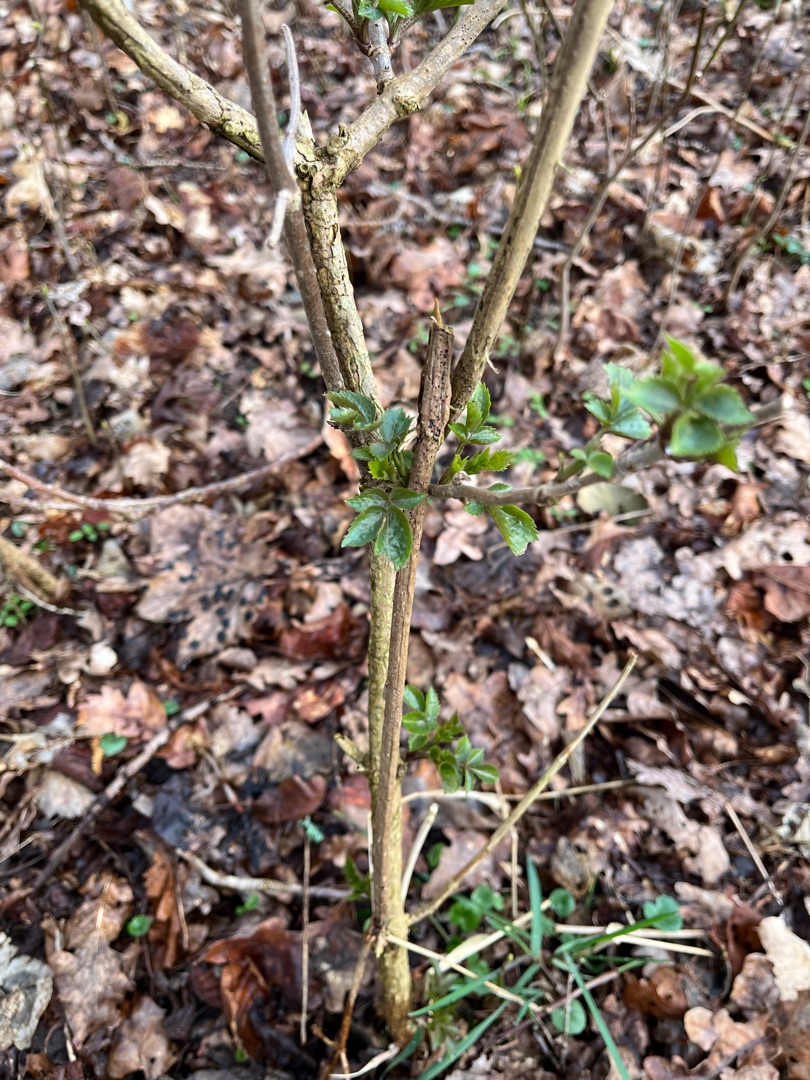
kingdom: Plantae
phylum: Tracheophyta
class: Magnoliopsida
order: Dipsacales
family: Viburnaceae
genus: Sambucus
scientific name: Sambucus nigra
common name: Almindelig hyld
